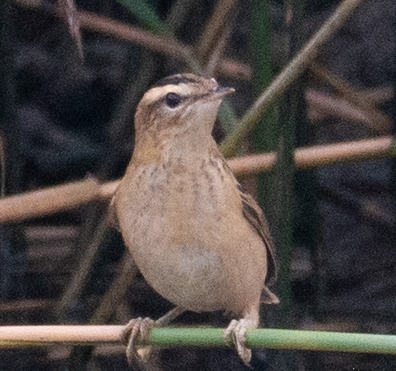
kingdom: Animalia
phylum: Chordata
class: Aves
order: Passeriformes
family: Acrocephalidae
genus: Acrocephalus
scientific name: Acrocephalus schoenobaenus
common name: Sivsanger
